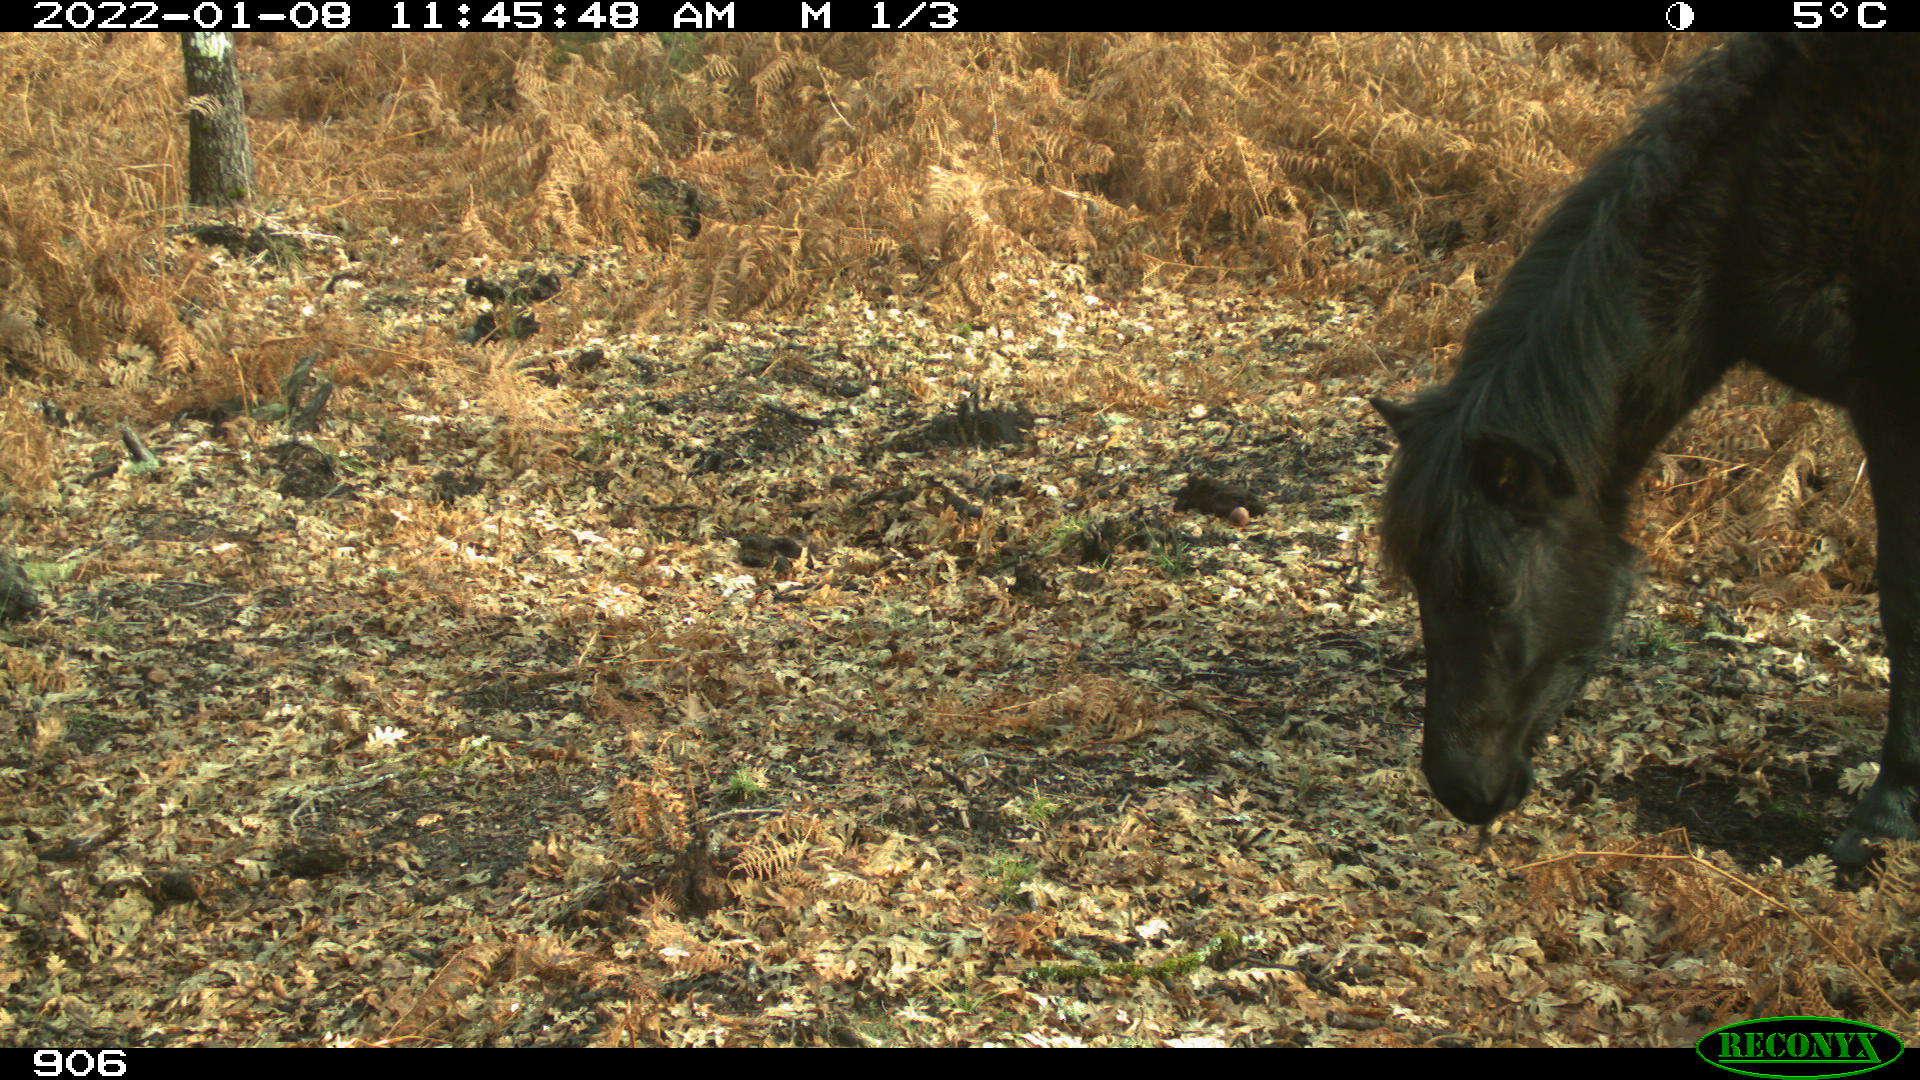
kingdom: Animalia
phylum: Chordata
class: Mammalia
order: Perissodactyla
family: Equidae
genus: Equus
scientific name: Equus caballus
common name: Horse
